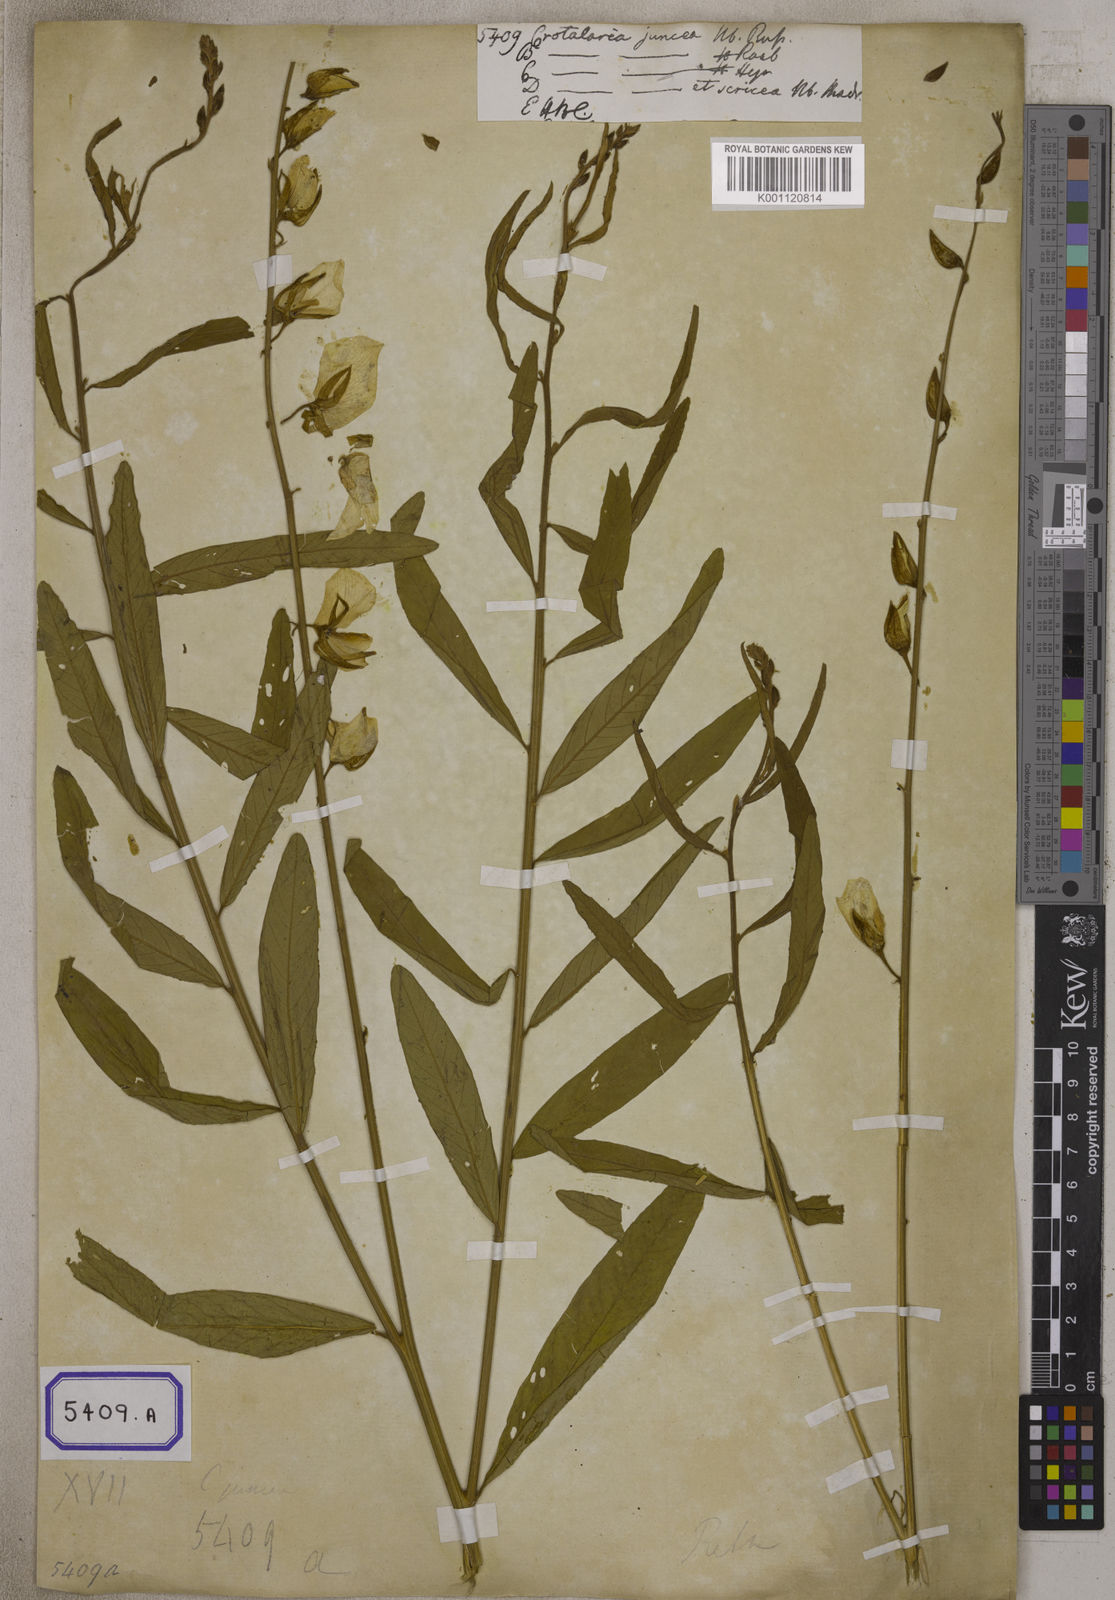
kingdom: Plantae
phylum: Tracheophyta
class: Magnoliopsida
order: Fabales
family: Fabaceae
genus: Crotalaria
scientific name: Crotalaria juncea
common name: Sunn hemp
